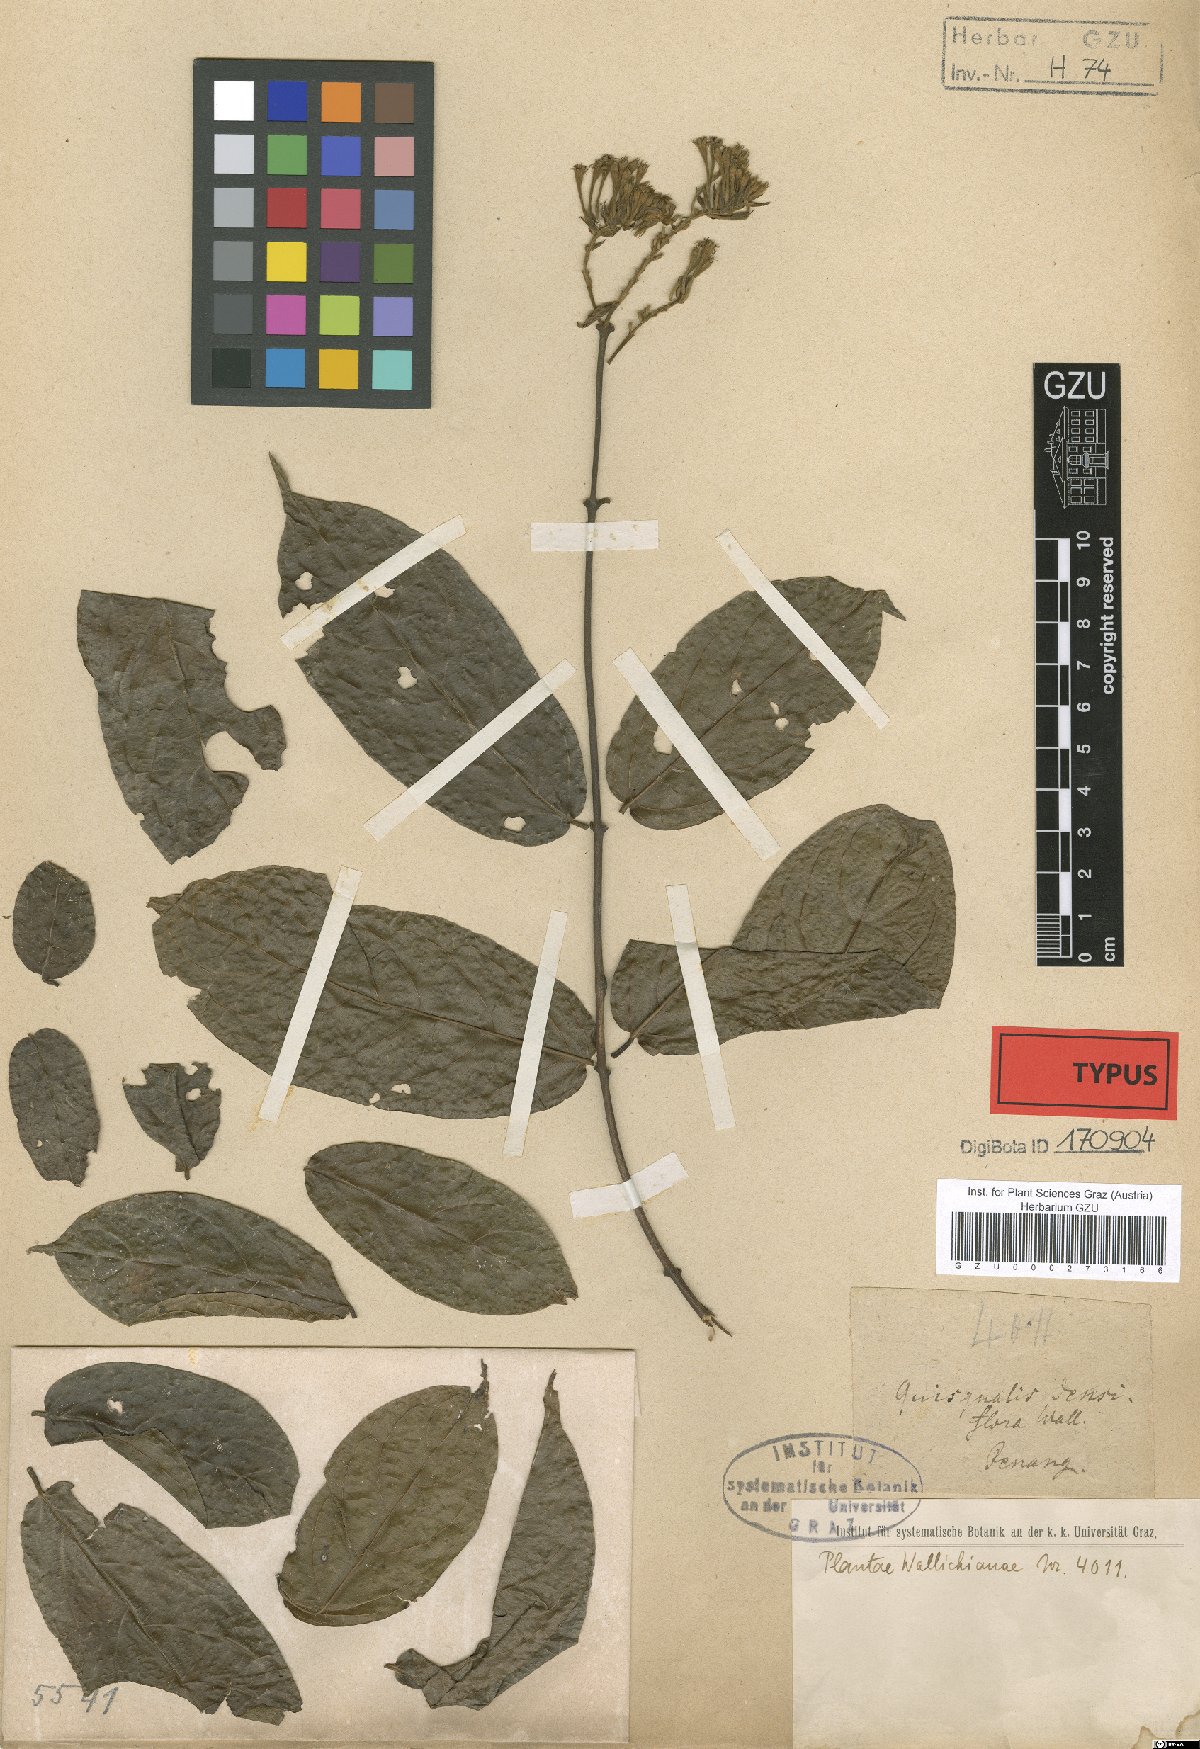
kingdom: Plantae
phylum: Tracheophyta
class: Magnoliopsida
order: Myrtales
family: Combretaceae
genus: Combretum
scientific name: Combretum densiflorum
